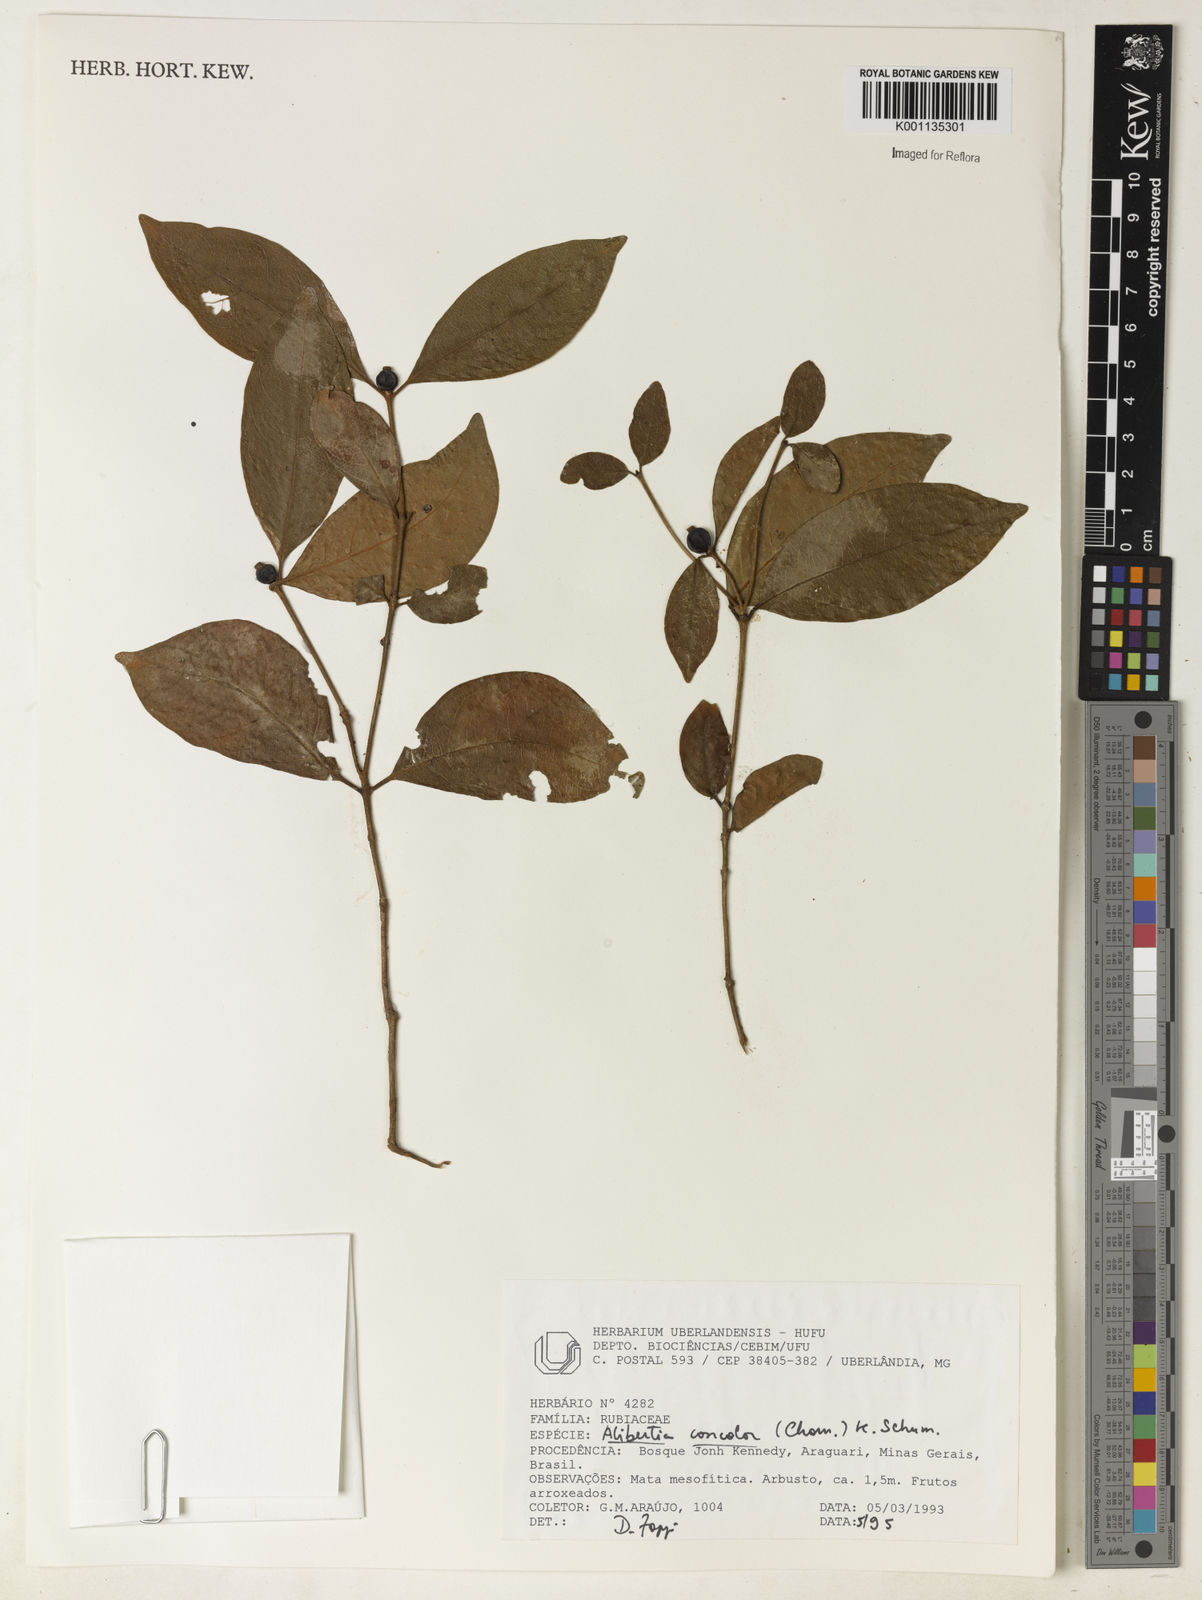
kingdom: Plantae
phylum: Tracheophyta
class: Magnoliopsida
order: Gentianales
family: Rubiaceae
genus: Cordiera
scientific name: Cordiera concolor
